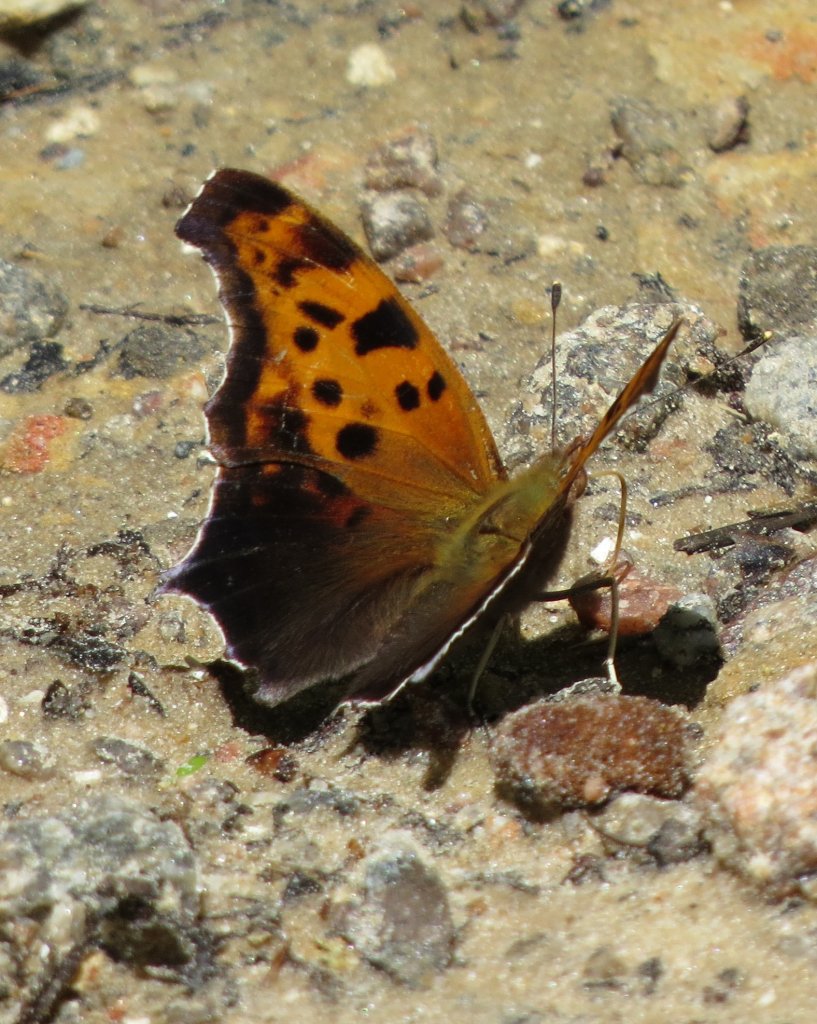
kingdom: Animalia
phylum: Arthropoda
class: Insecta
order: Lepidoptera
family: Nymphalidae
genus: Polygonia
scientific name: Polygonia interrogationis
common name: Question Mark
